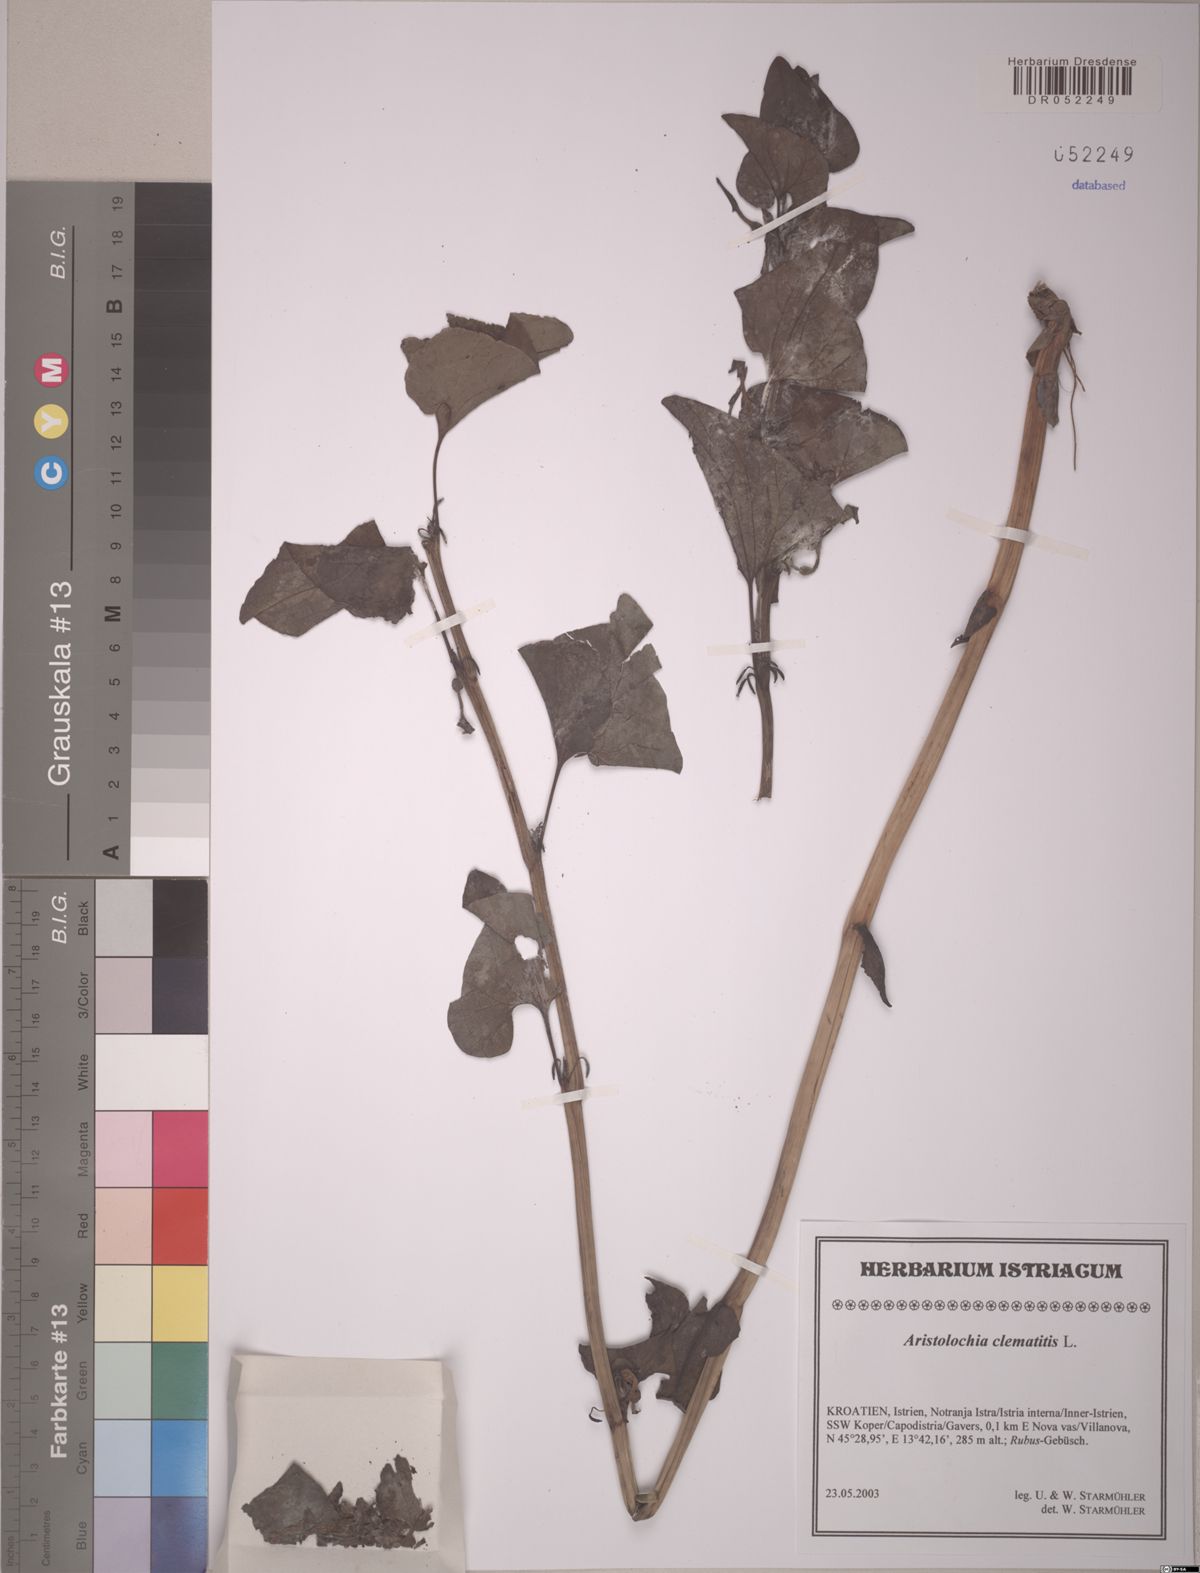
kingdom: Plantae
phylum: Tracheophyta
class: Magnoliopsida
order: Piperales
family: Aristolochiaceae
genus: Aristolochia
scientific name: Aristolochia clematitis
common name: Birthwort
